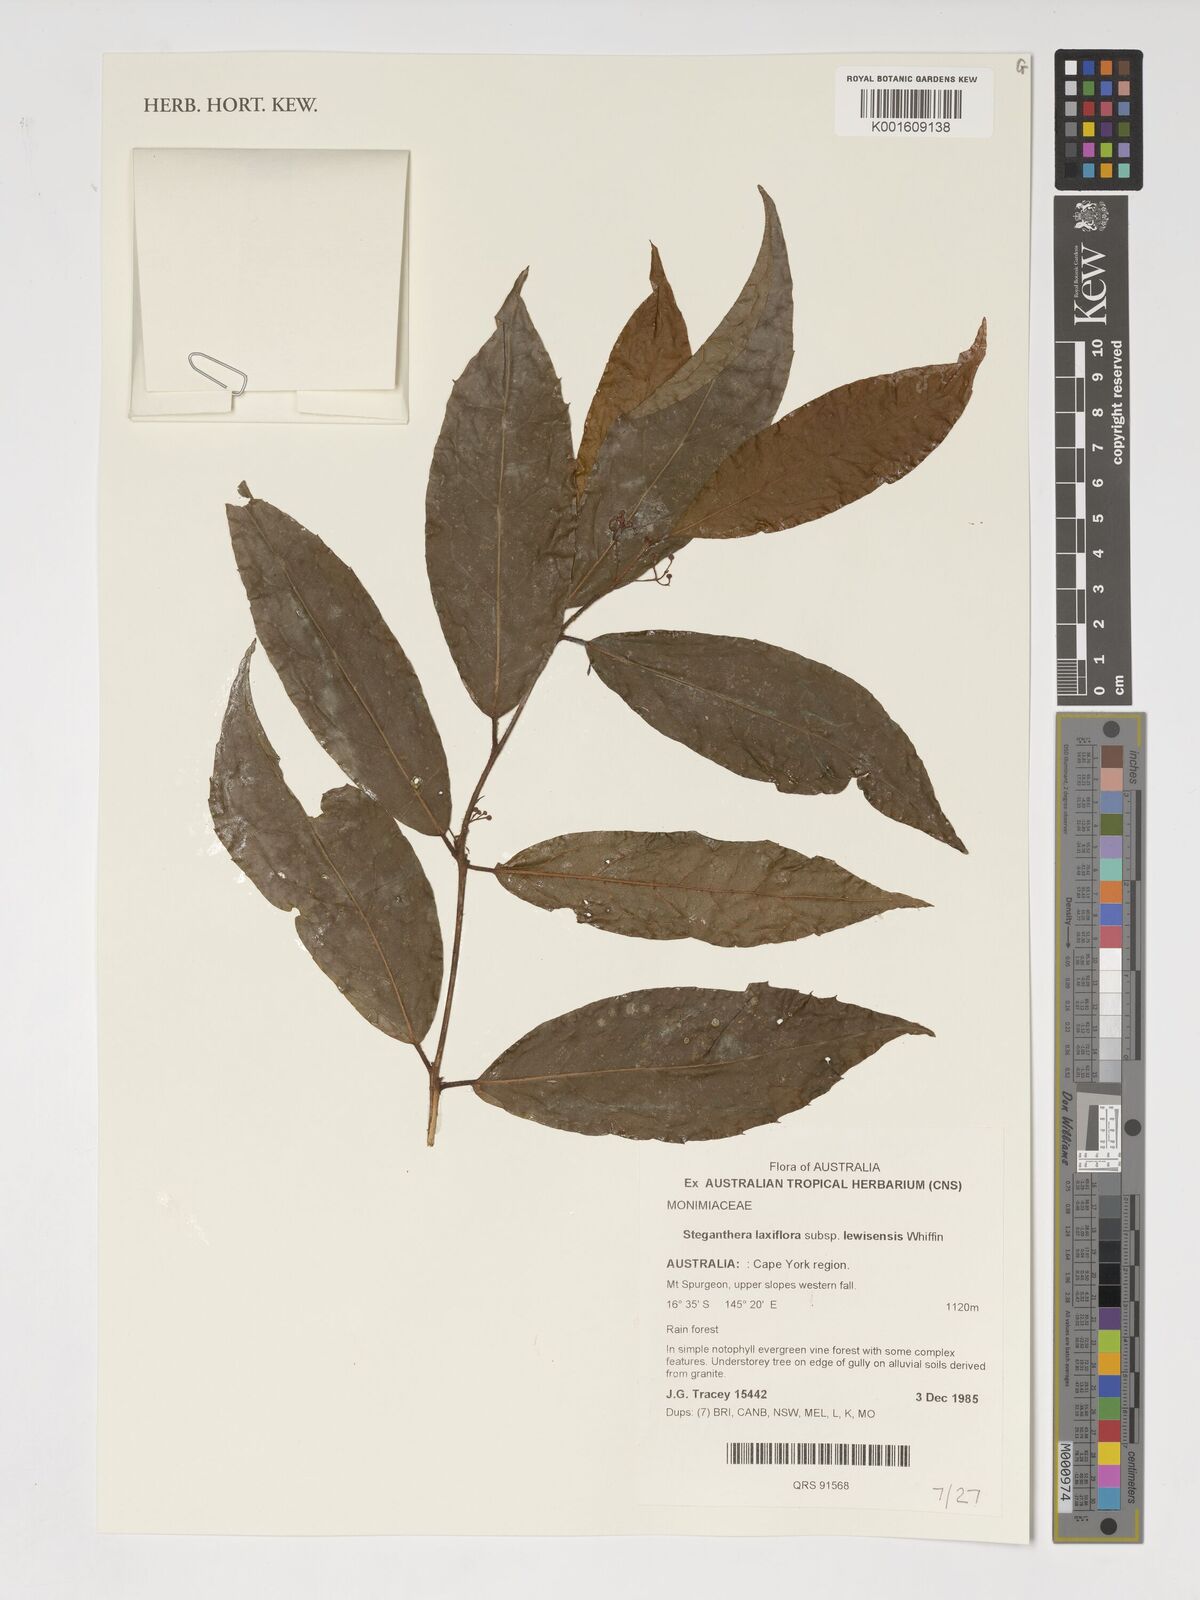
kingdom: Plantae
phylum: Tracheophyta
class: Magnoliopsida
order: Laurales
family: Monimiaceae
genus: Steganthera
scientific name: Steganthera laxiflora
